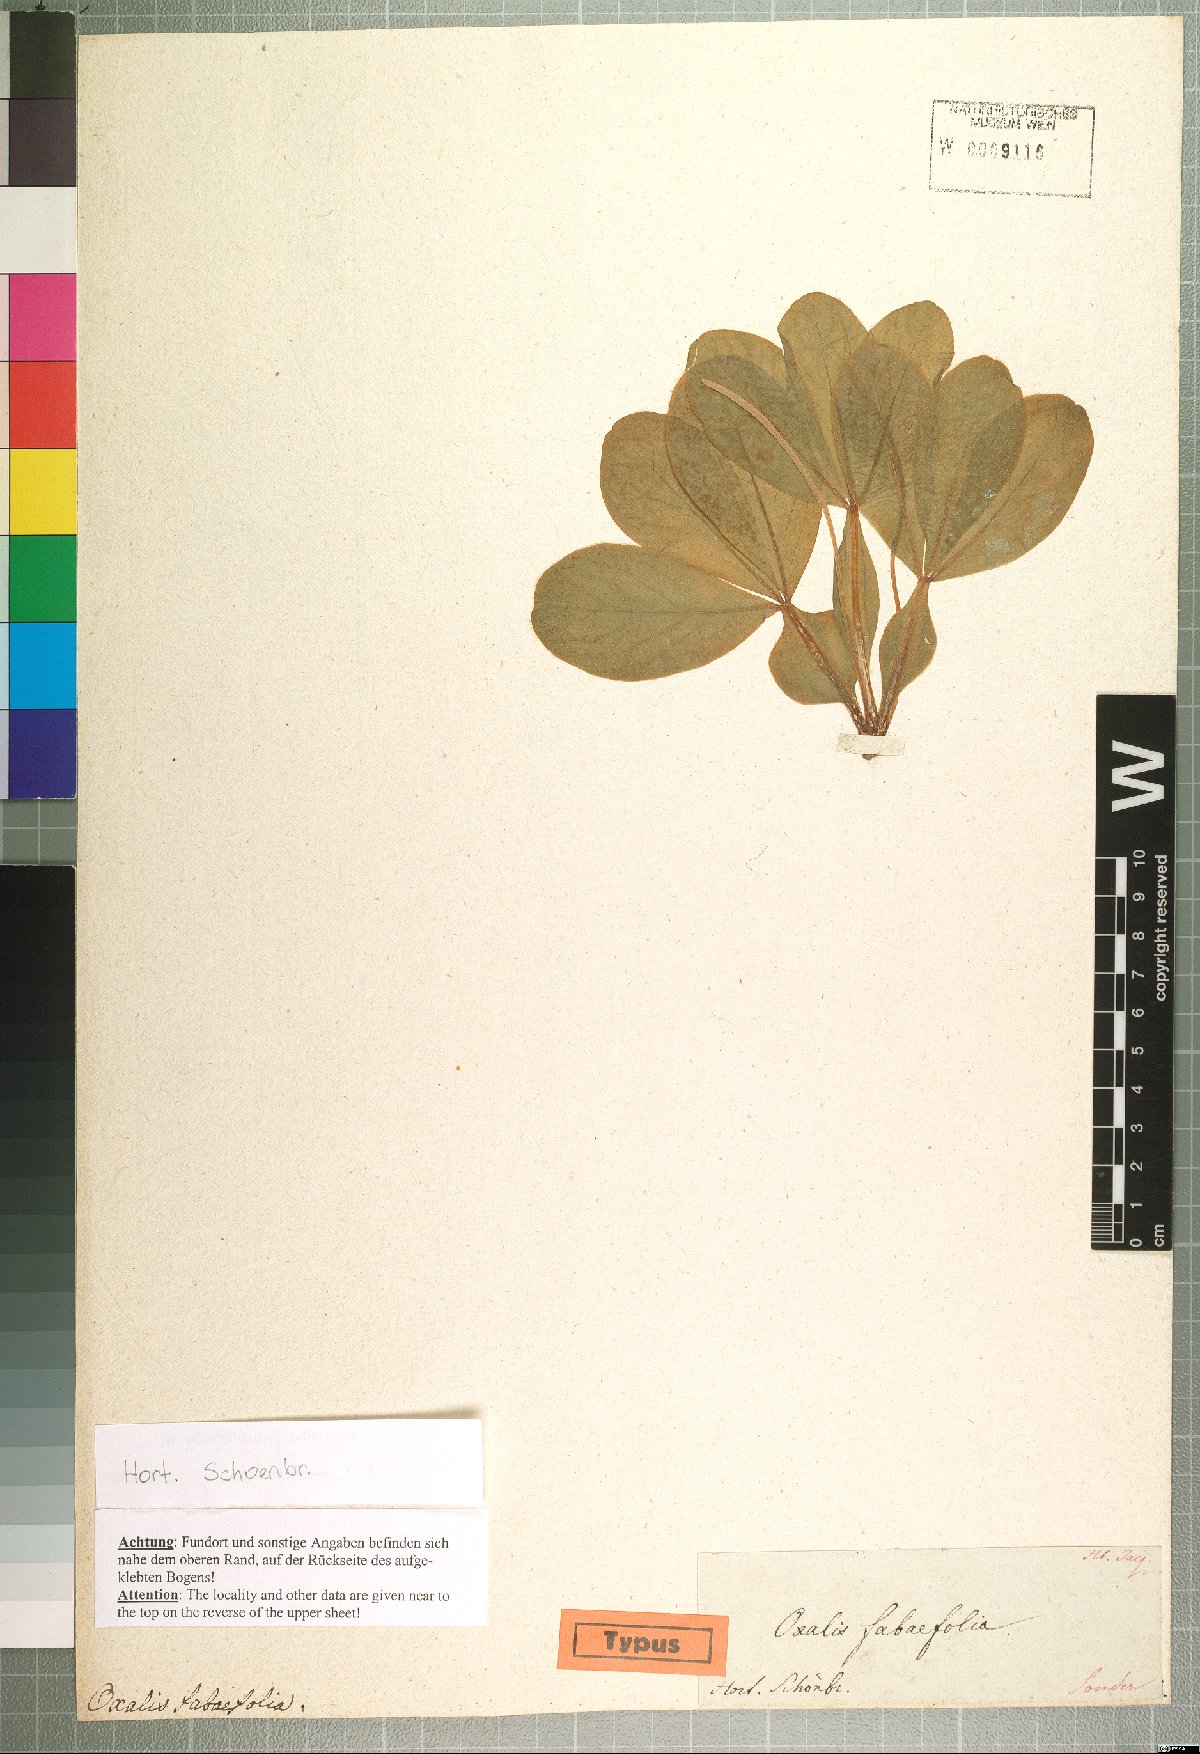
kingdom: Plantae
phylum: Tracheophyta
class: Magnoliopsida
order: Oxalidales
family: Oxalidaceae
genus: Oxalis
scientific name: Oxalis flava
